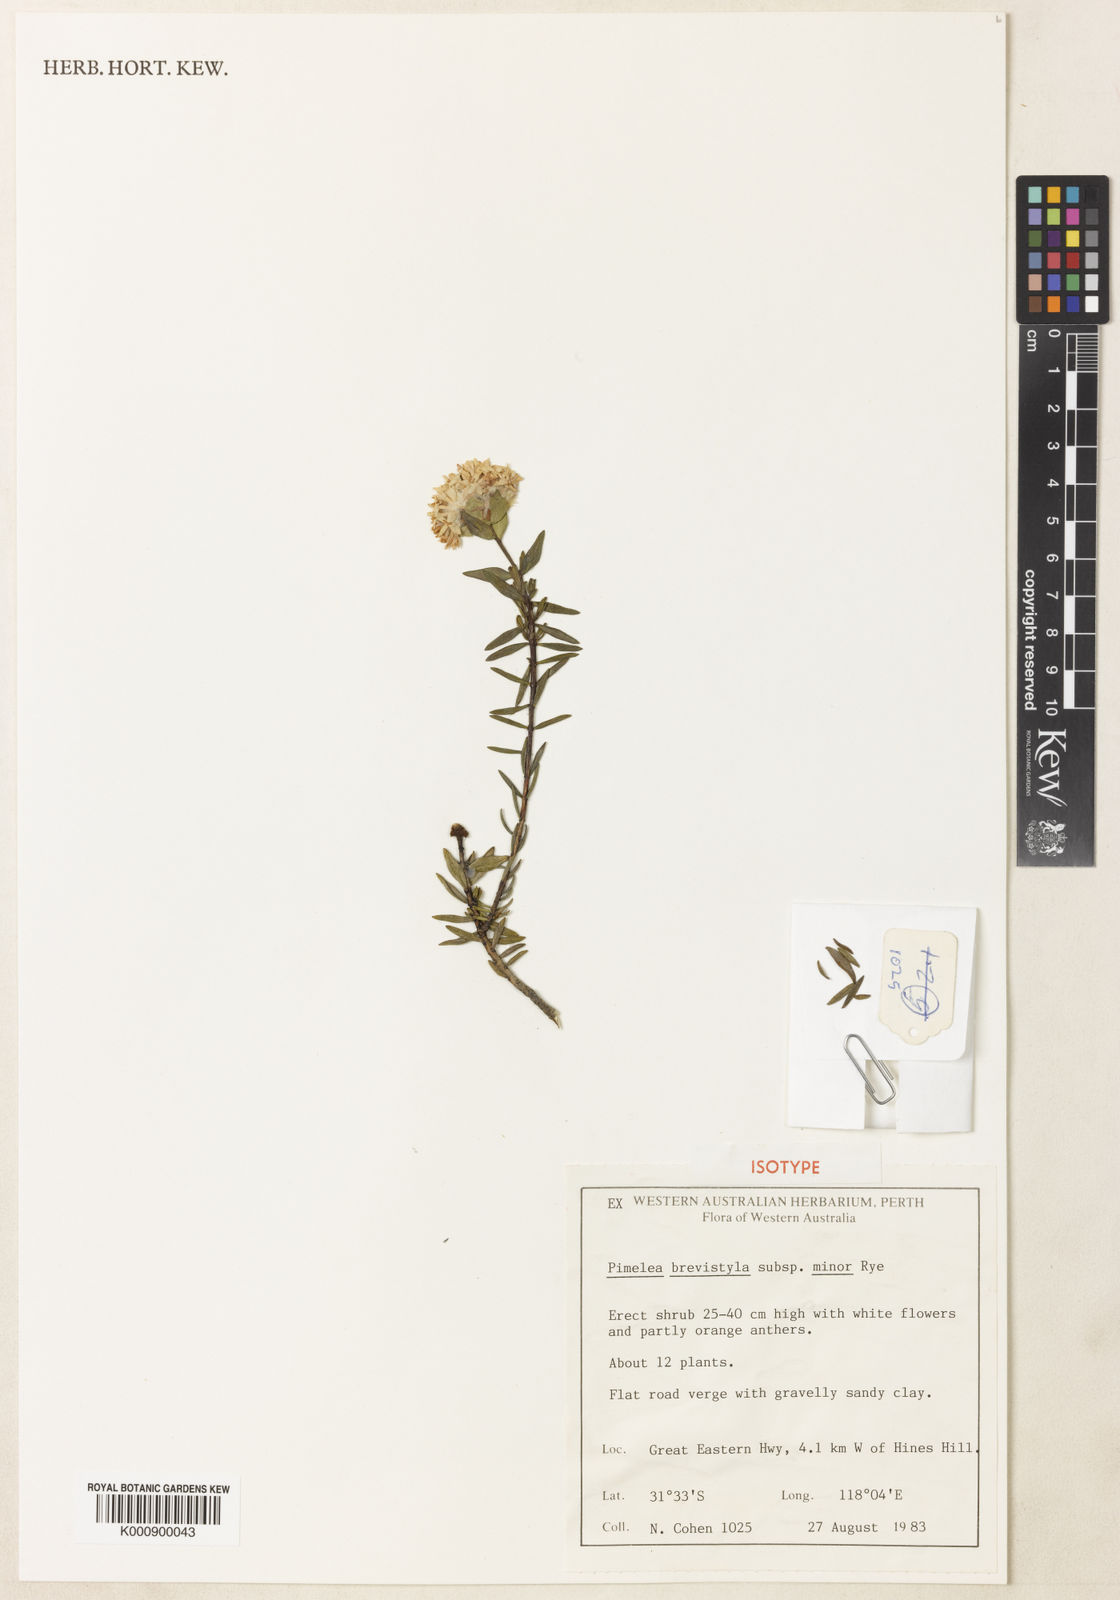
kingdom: Plantae
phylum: Tracheophyta
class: Magnoliopsida
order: Malvales
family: Thymelaeaceae
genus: Pimelea
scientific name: Pimelea brevistyla
